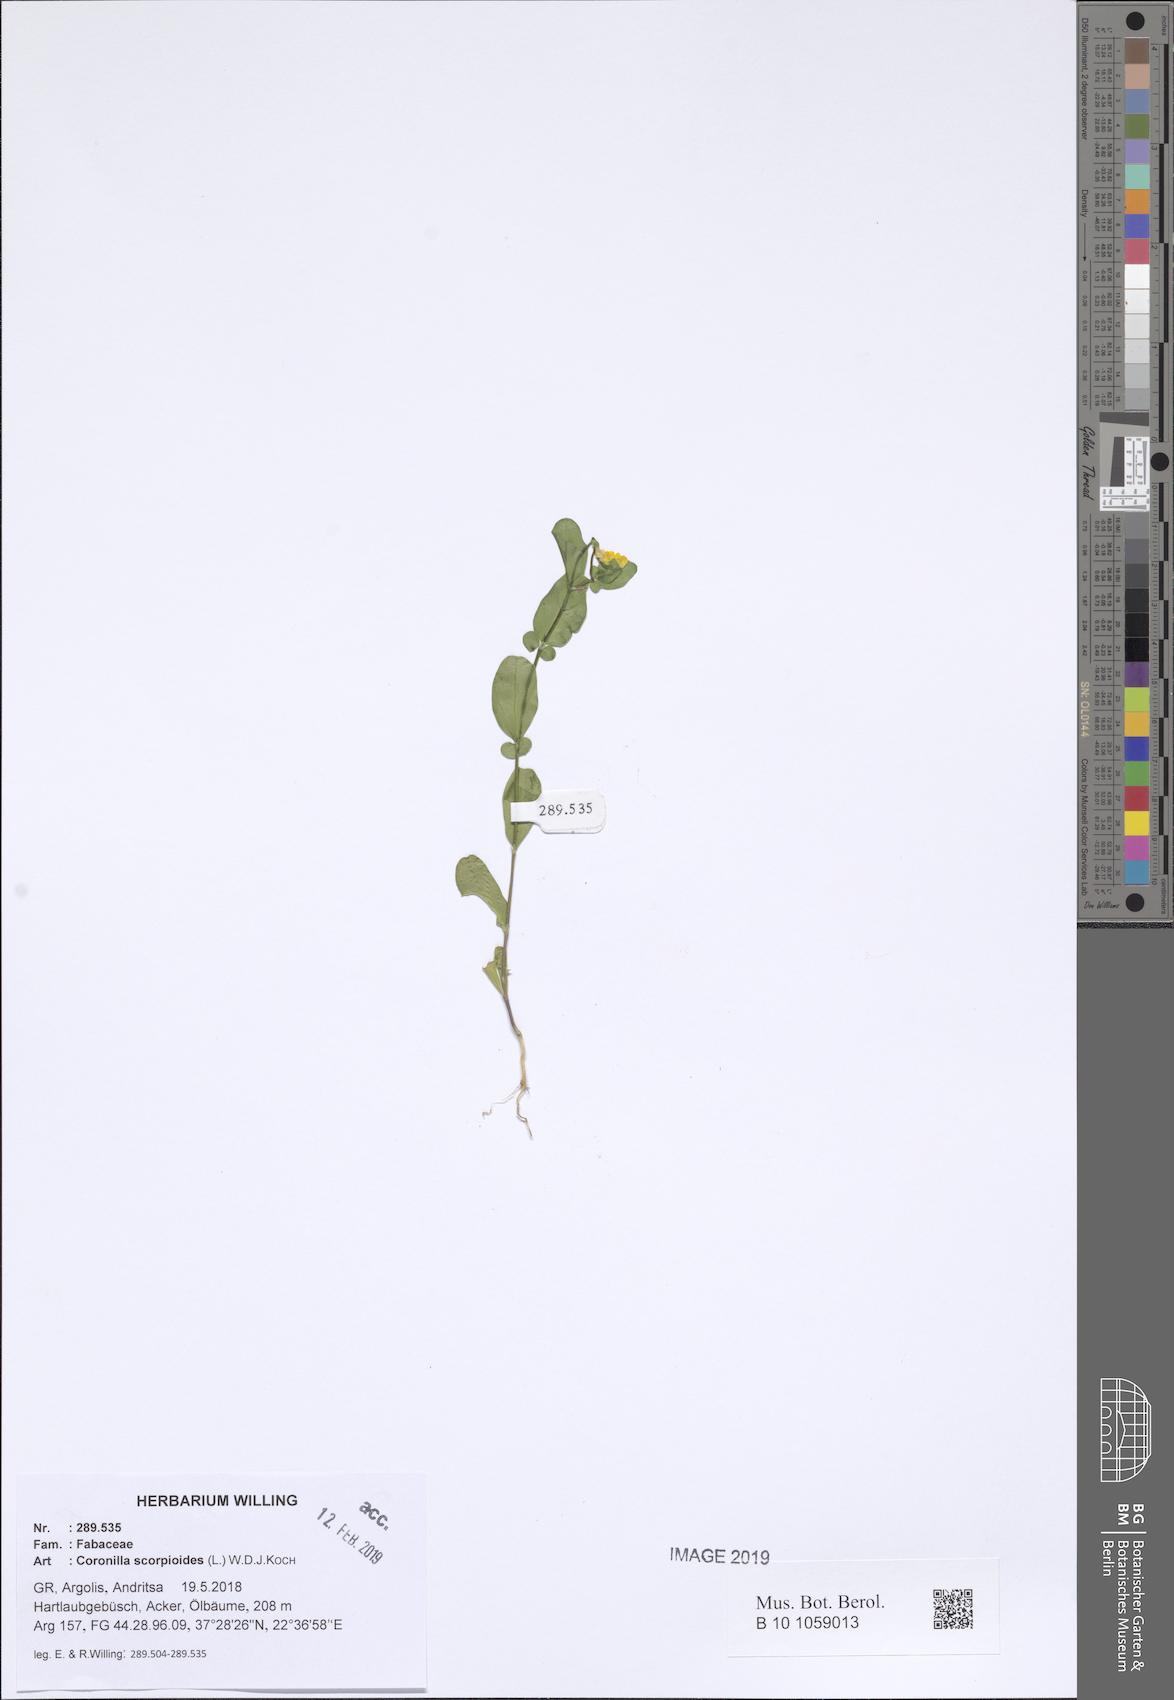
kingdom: Plantae
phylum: Tracheophyta
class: Magnoliopsida
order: Fabales
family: Fabaceae
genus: Coronilla
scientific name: Coronilla scorpioides
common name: Annual scorpion-vetch
